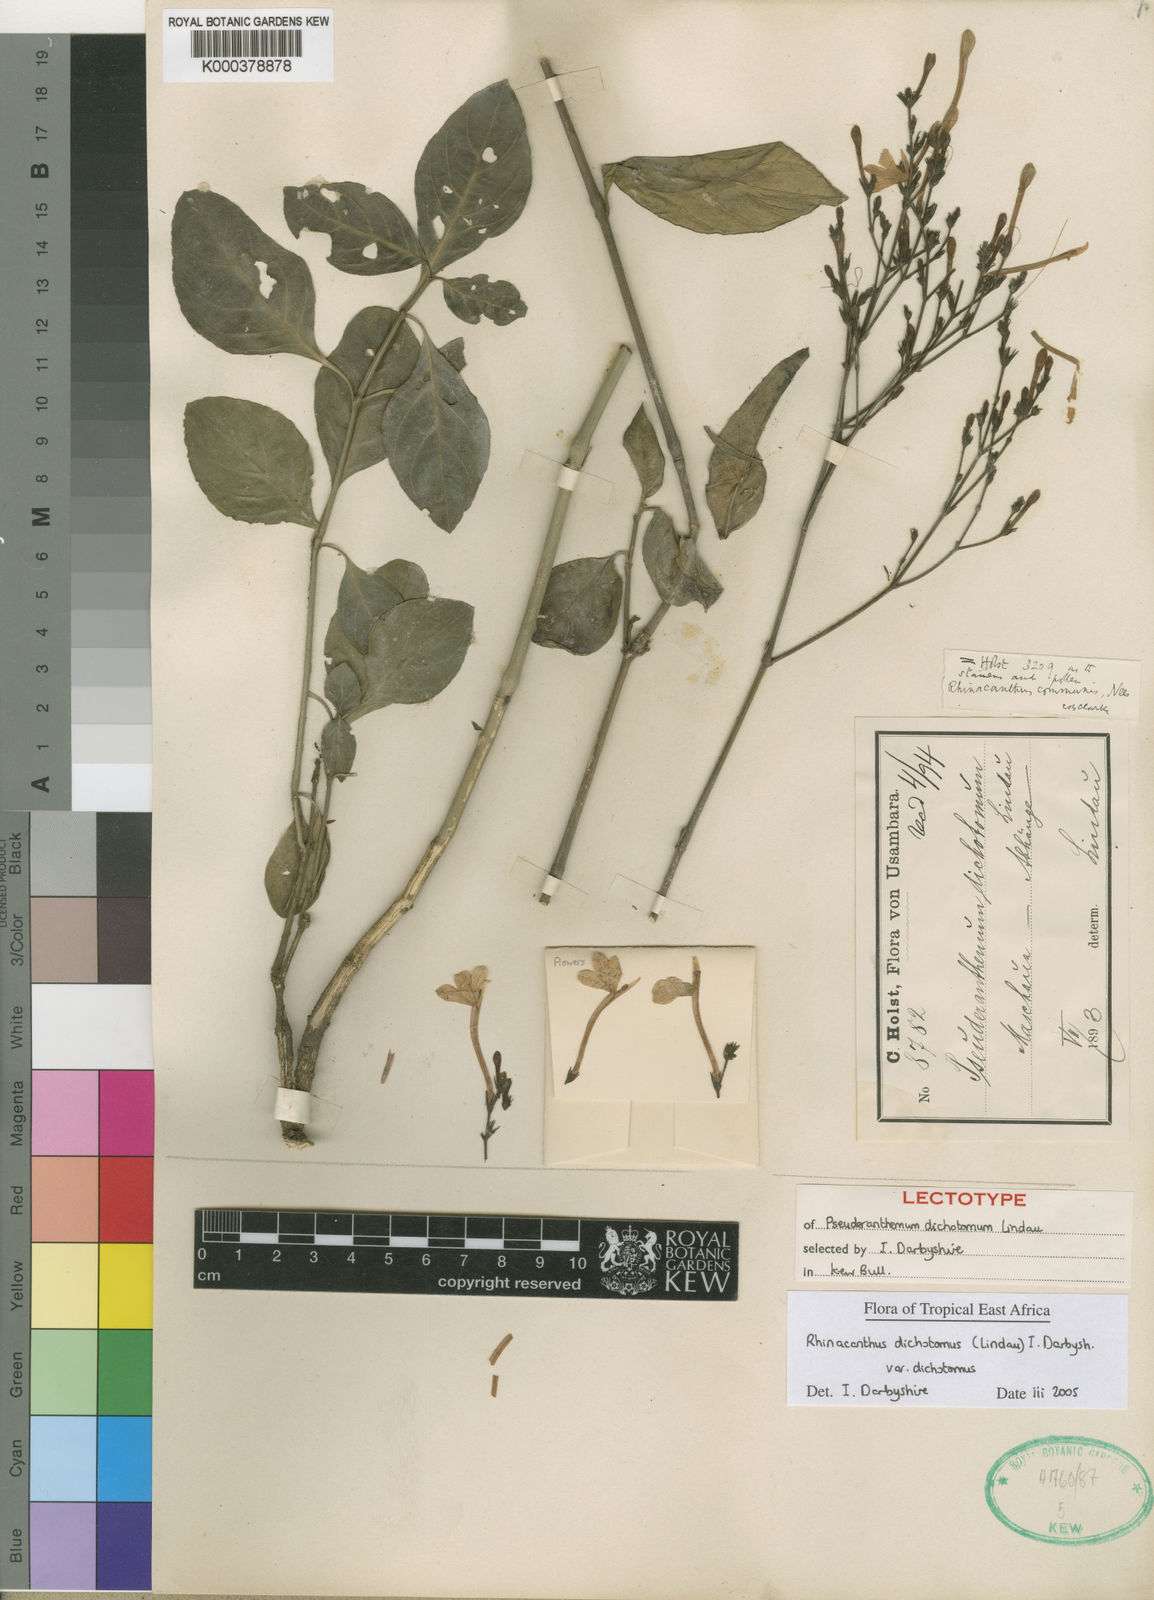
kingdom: Plantae
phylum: Tracheophyta
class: Magnoliopsida
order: Lamiales
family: Acanthaceae
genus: Rhinacanthus
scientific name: Rhinacanthus gracilis
